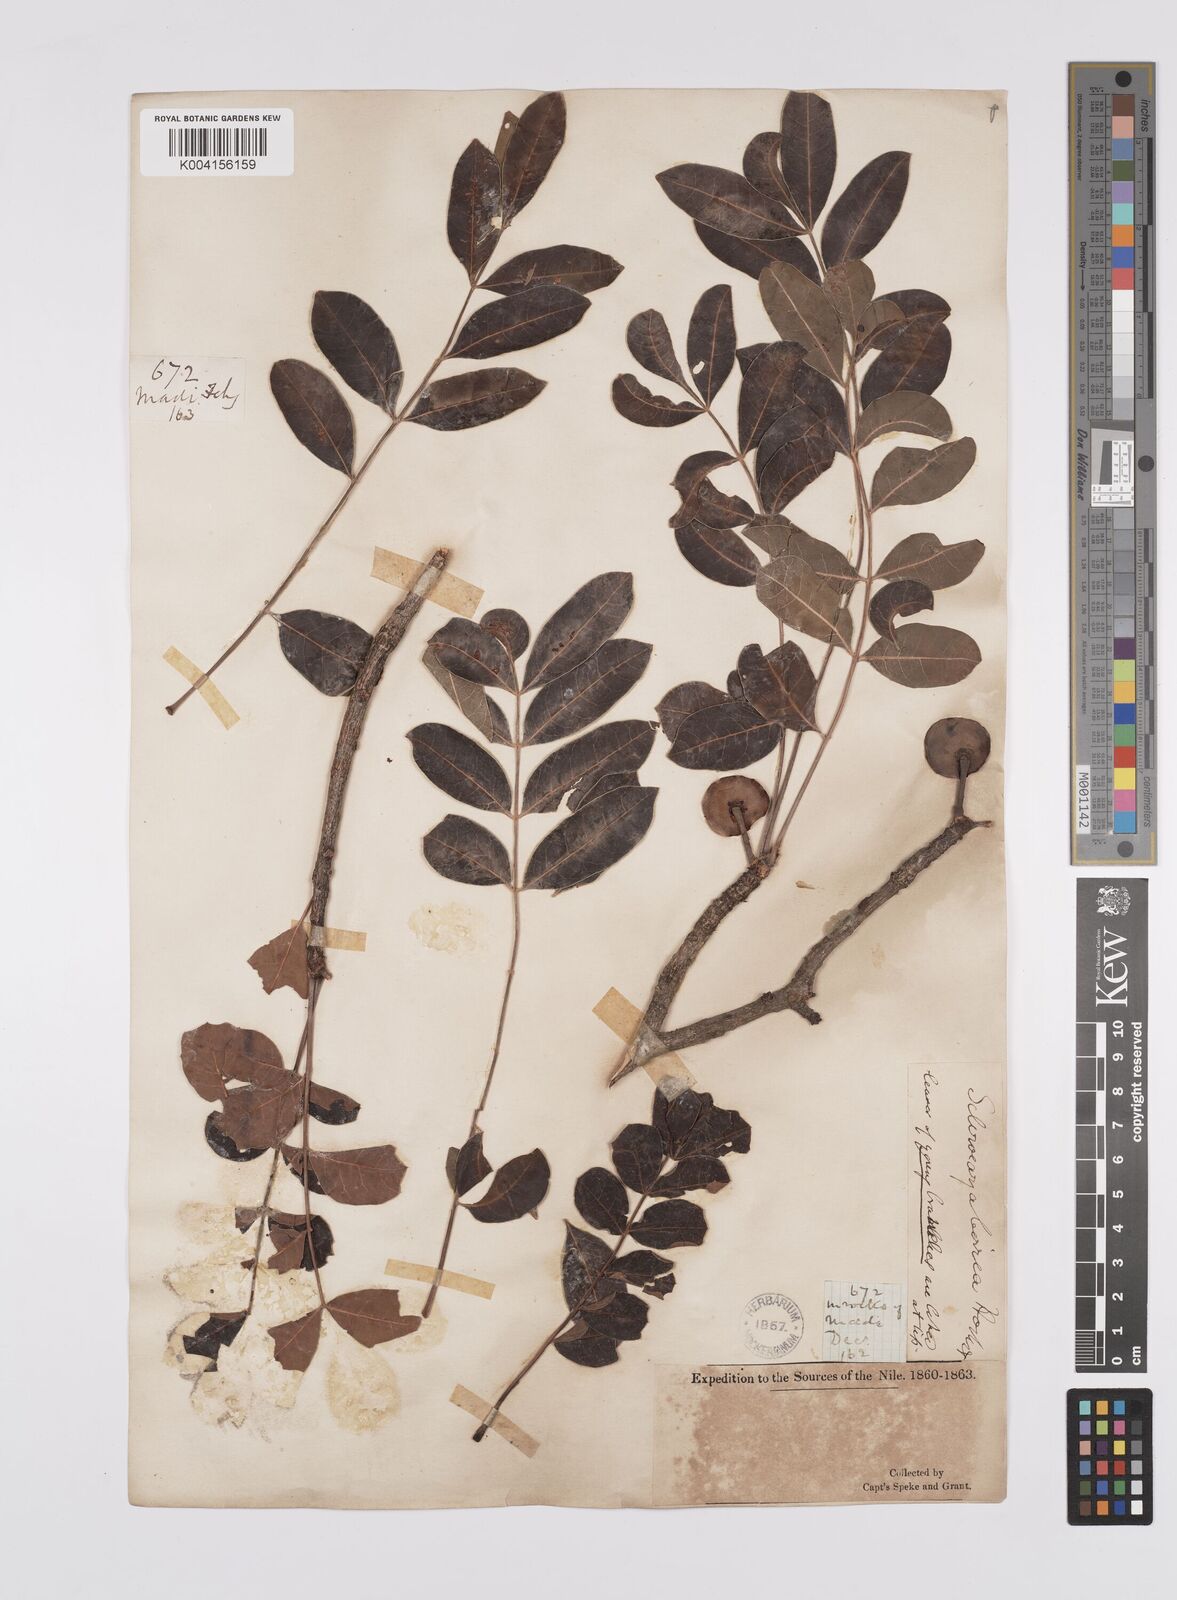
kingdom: Plantae
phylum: Tracheophyta
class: Magnoliopsida
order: Sapindales
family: Anacardiaceae
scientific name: Anacardiaceae
